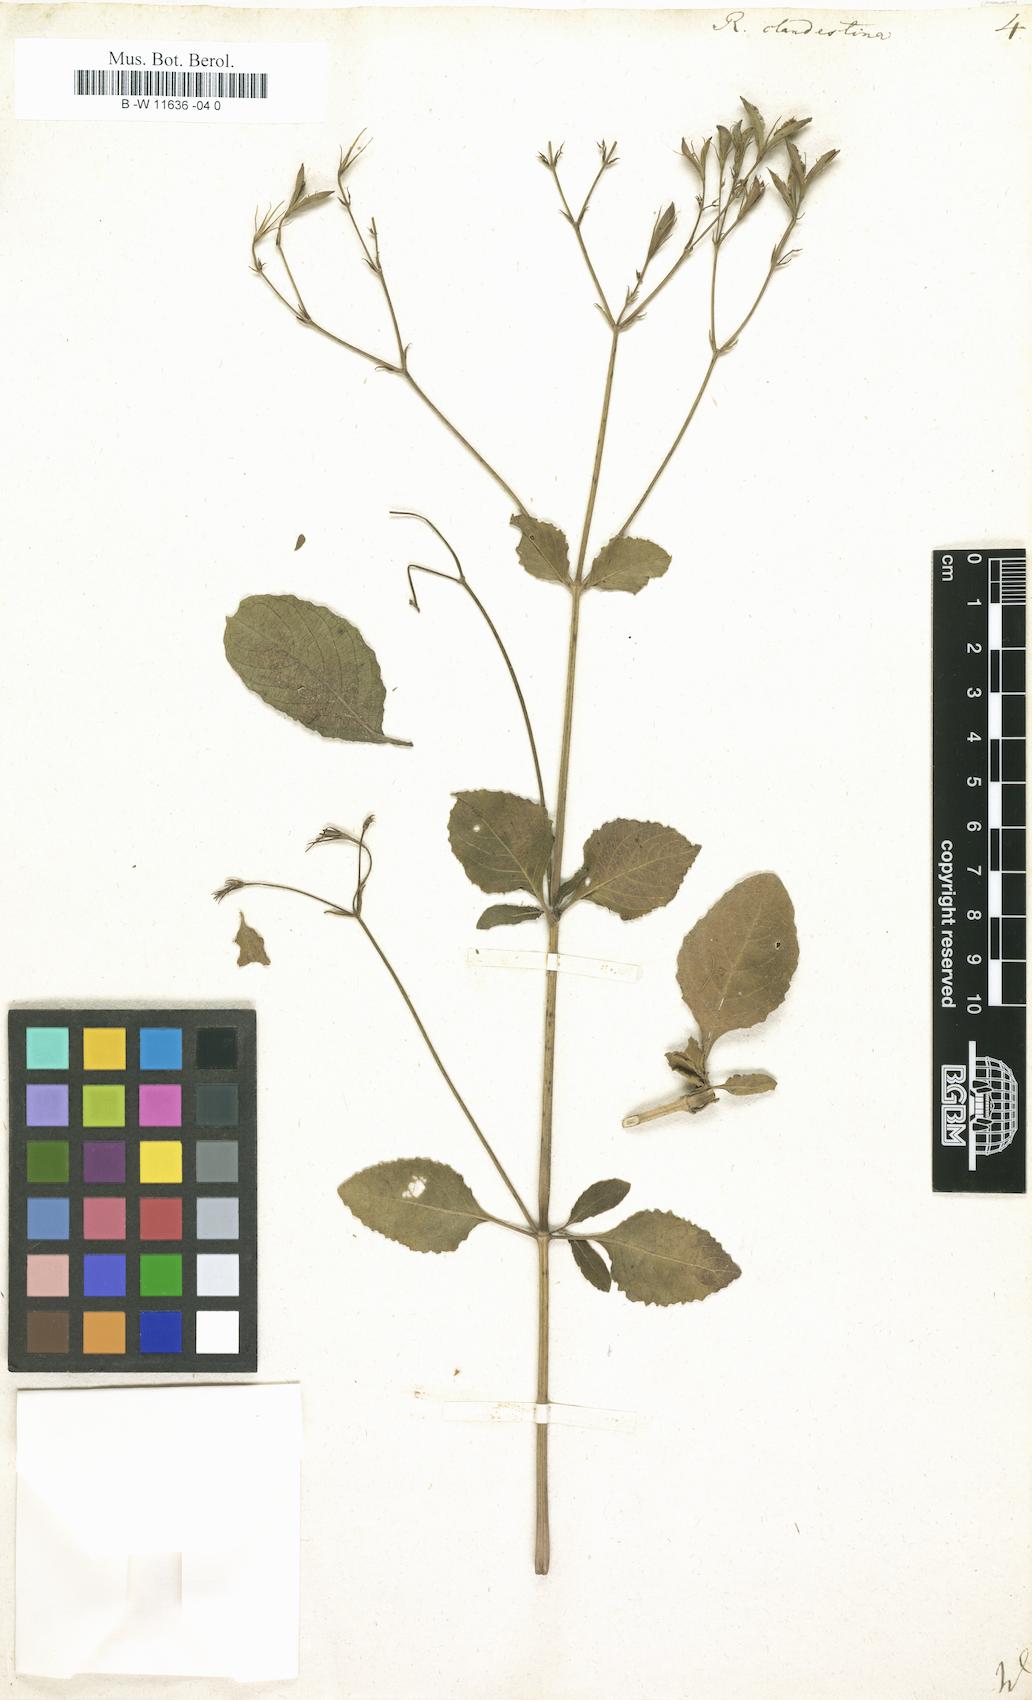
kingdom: Plantae
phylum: Tracheophyta
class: Magnoliopsida
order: Lamiales
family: Acanthaceae
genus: Ruellia
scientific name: Ruellia tuberosa
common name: Devil's bit
